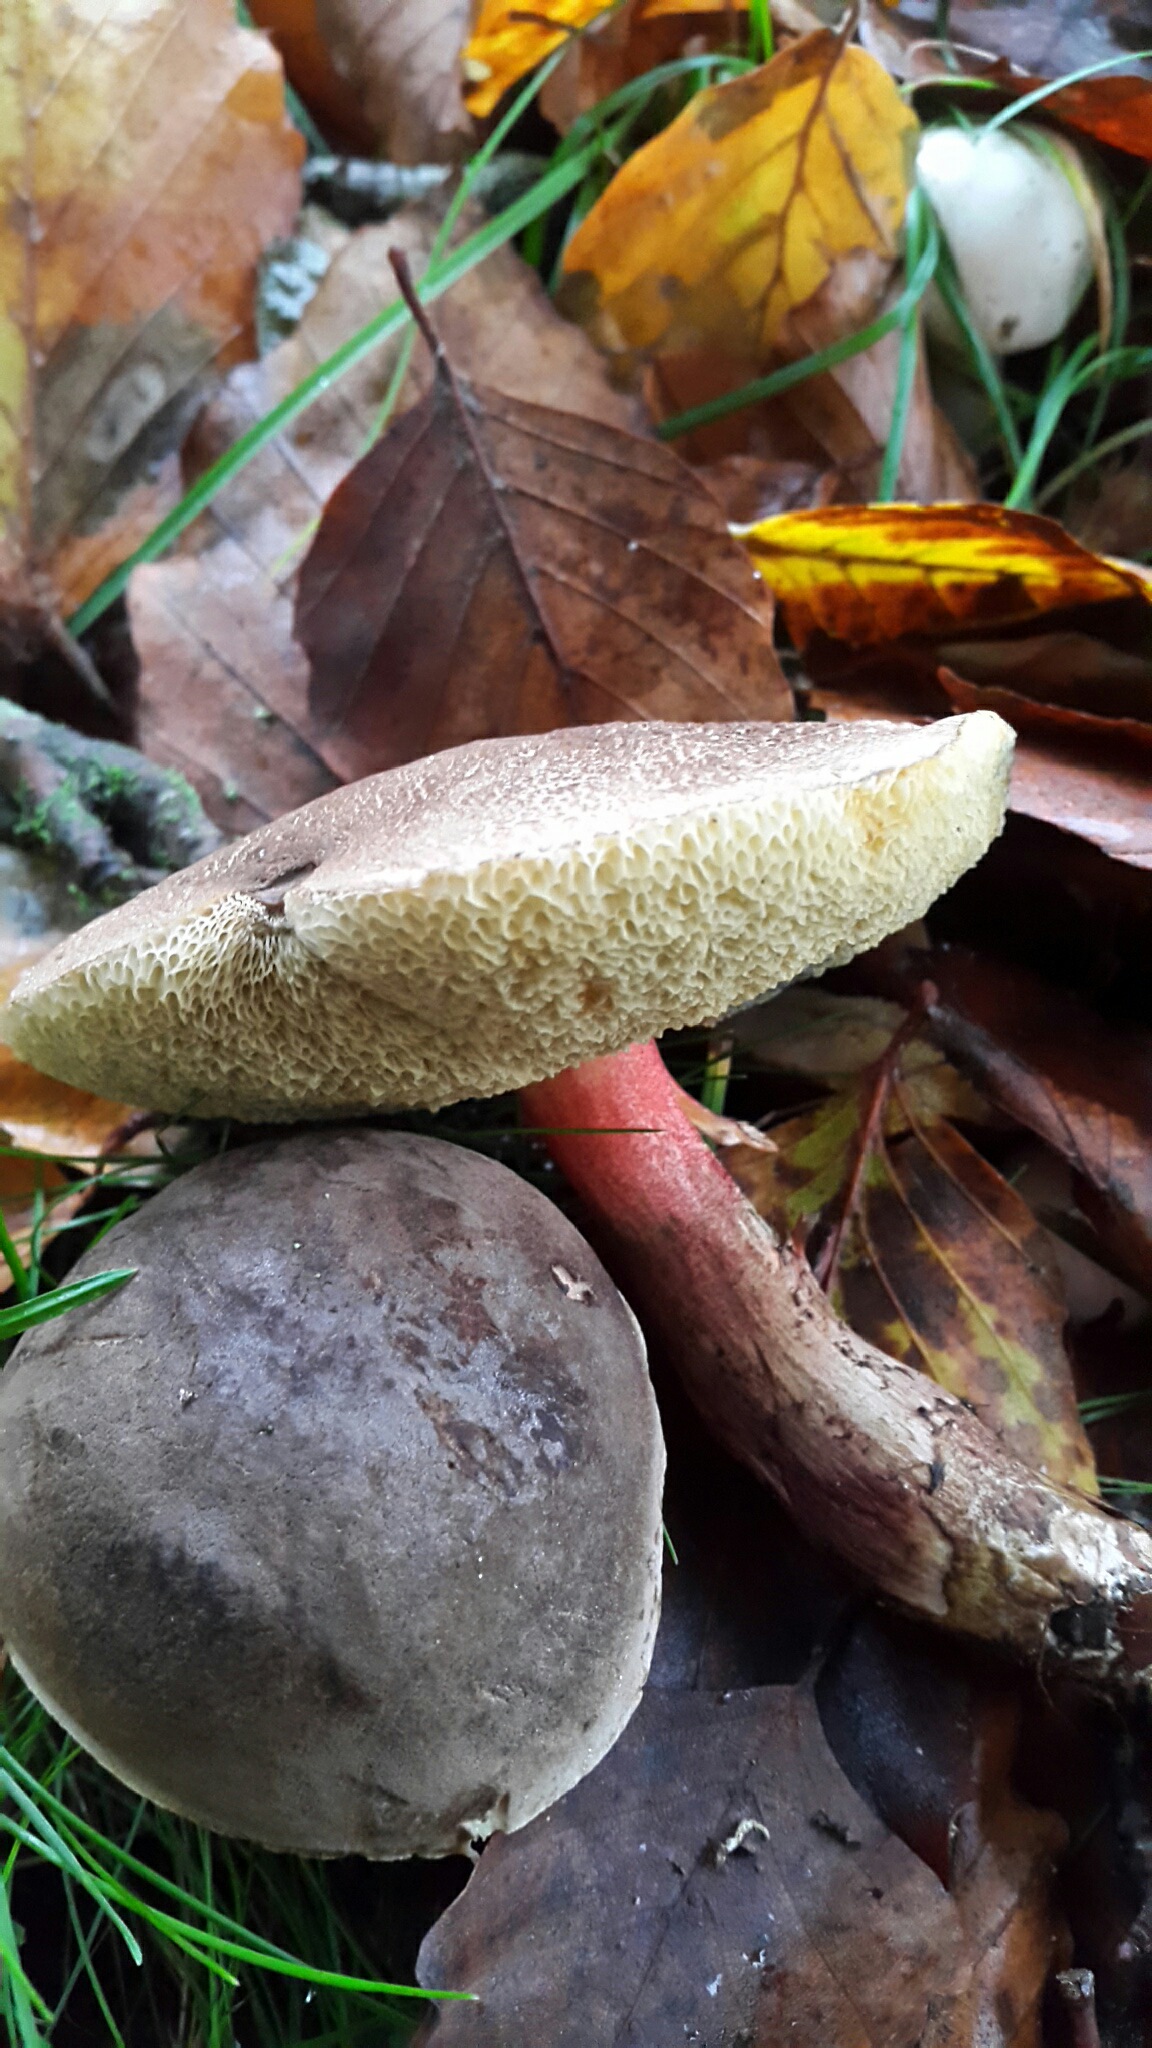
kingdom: Fungi
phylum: Basidiomycota
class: Agaricomycetes
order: Boletales
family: Boletaceae
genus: Xerocomellus
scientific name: Xerocomellus pruinatus
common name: dugget rørhat
